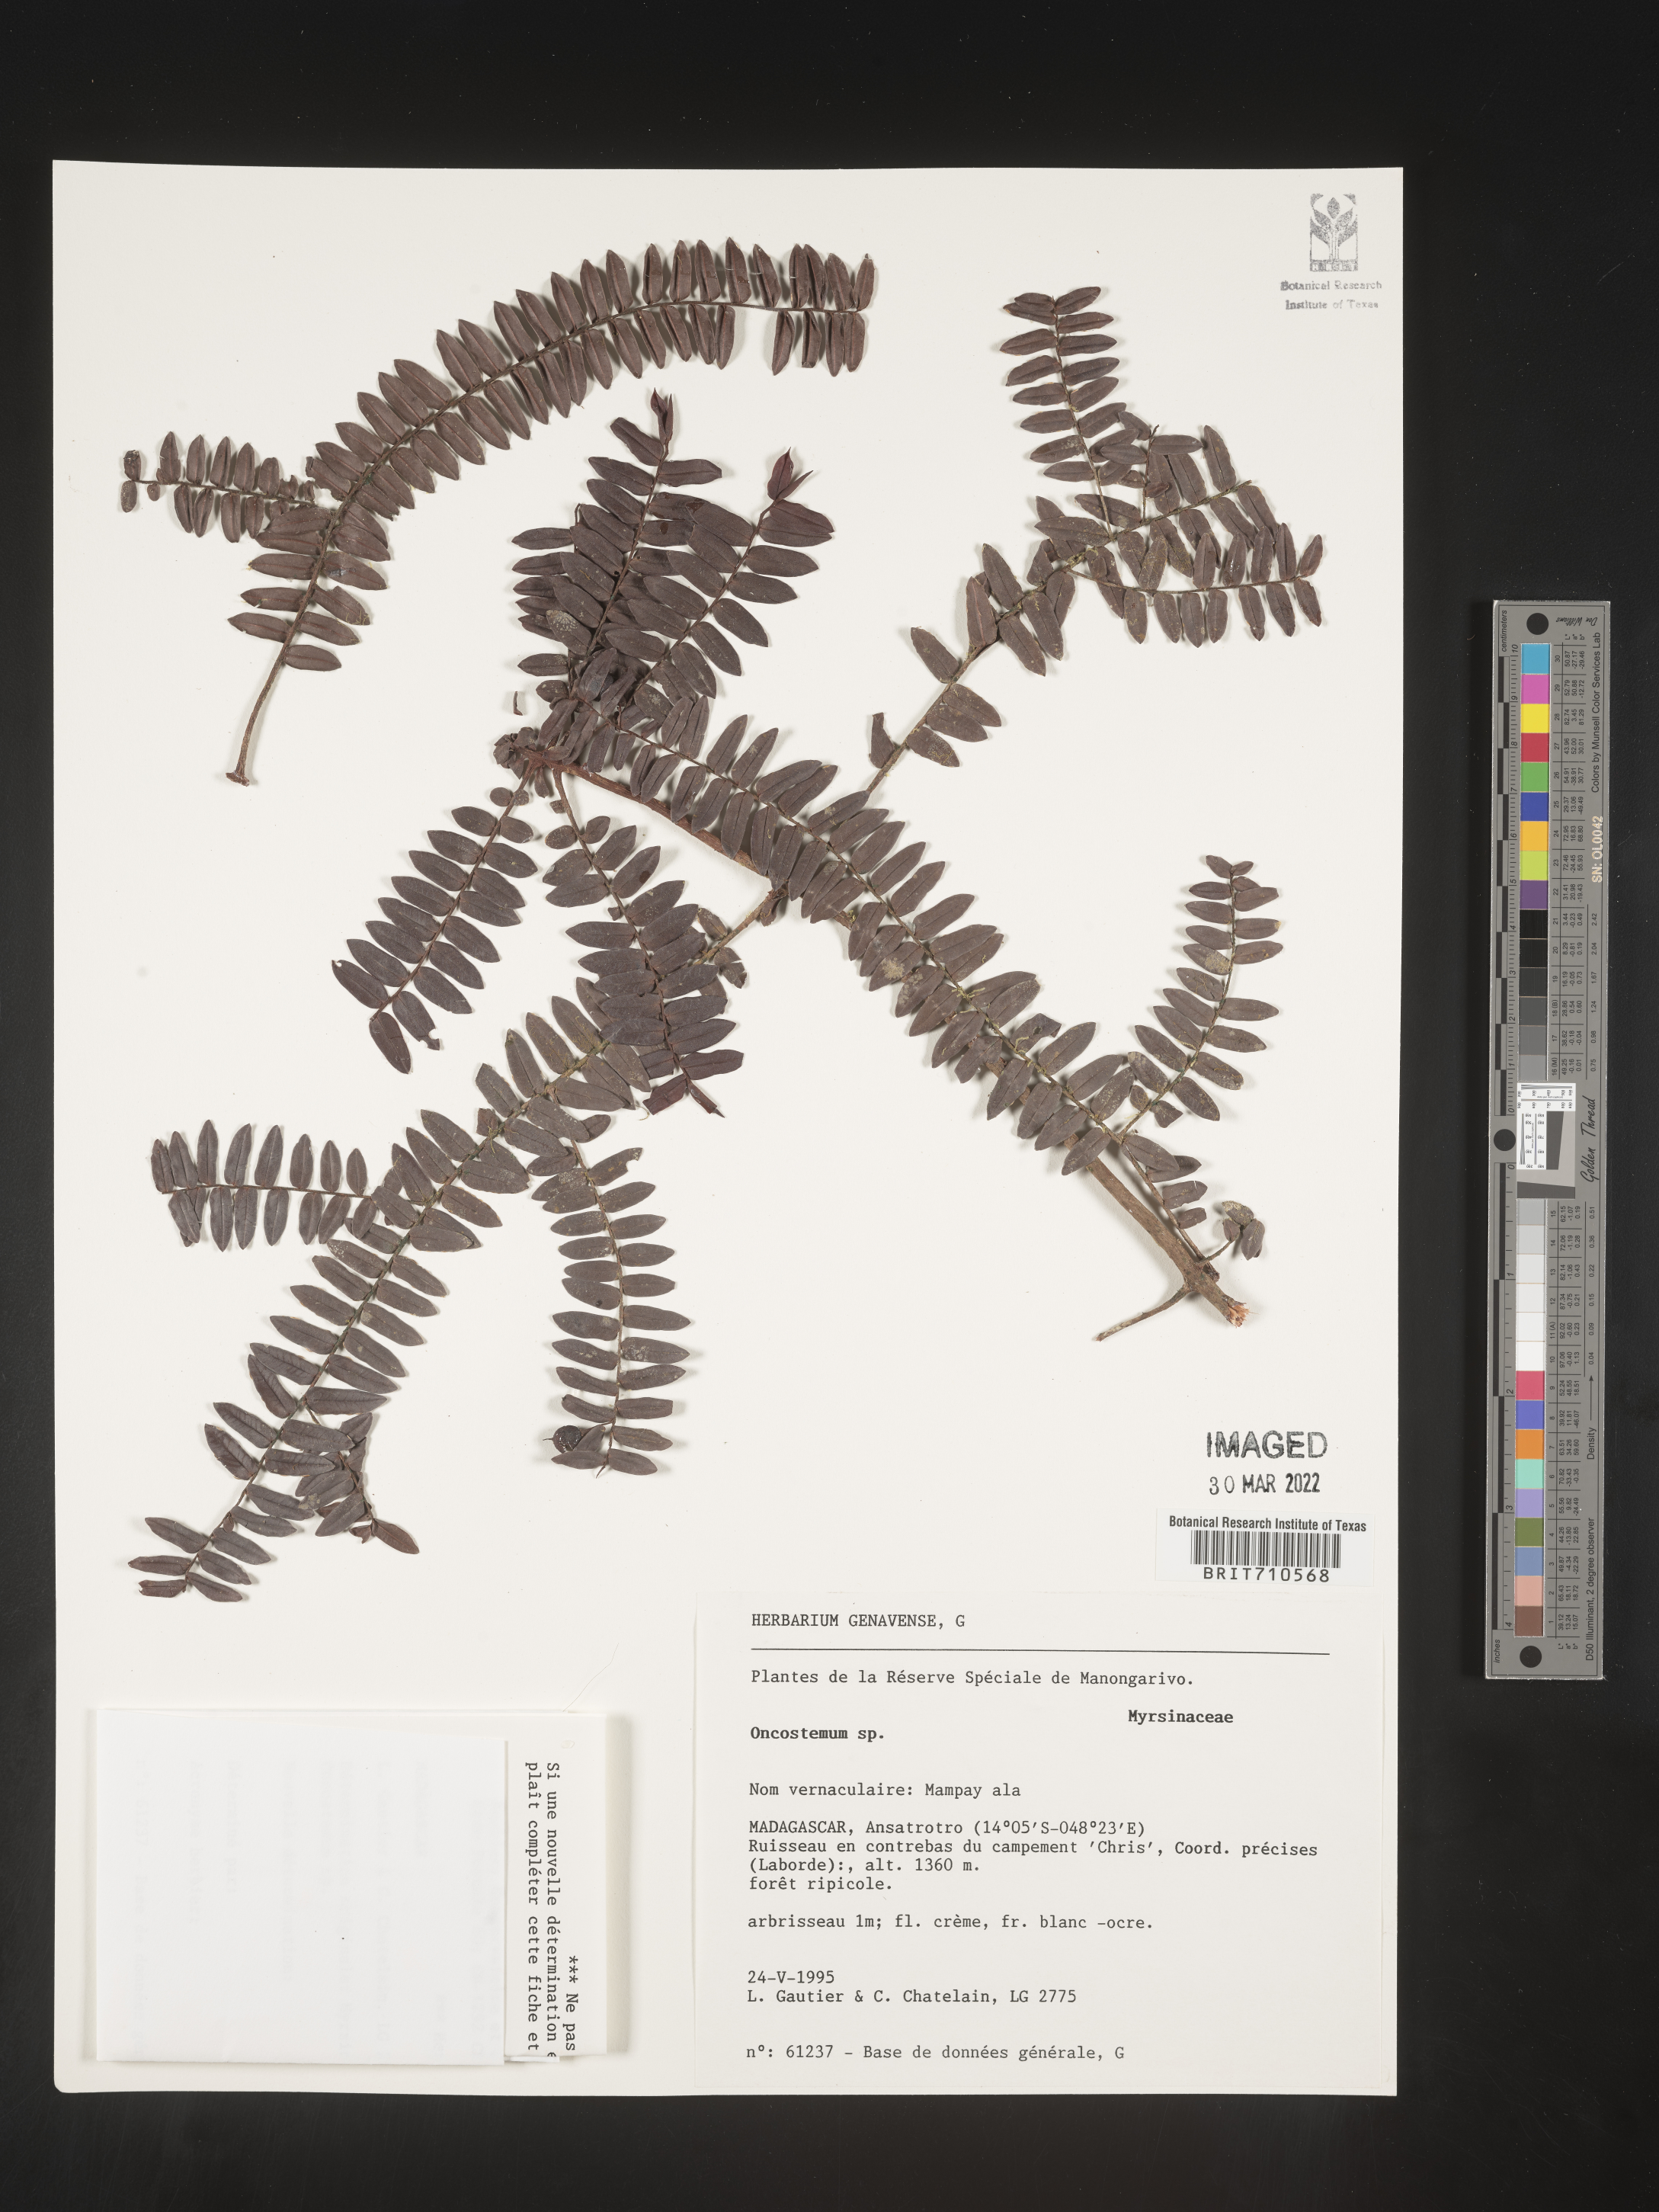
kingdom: Plantae
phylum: Tracheophyta
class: Magnoliopsida
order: Ericales
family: Primulaceae
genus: Oncostemum
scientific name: Oncostemum
